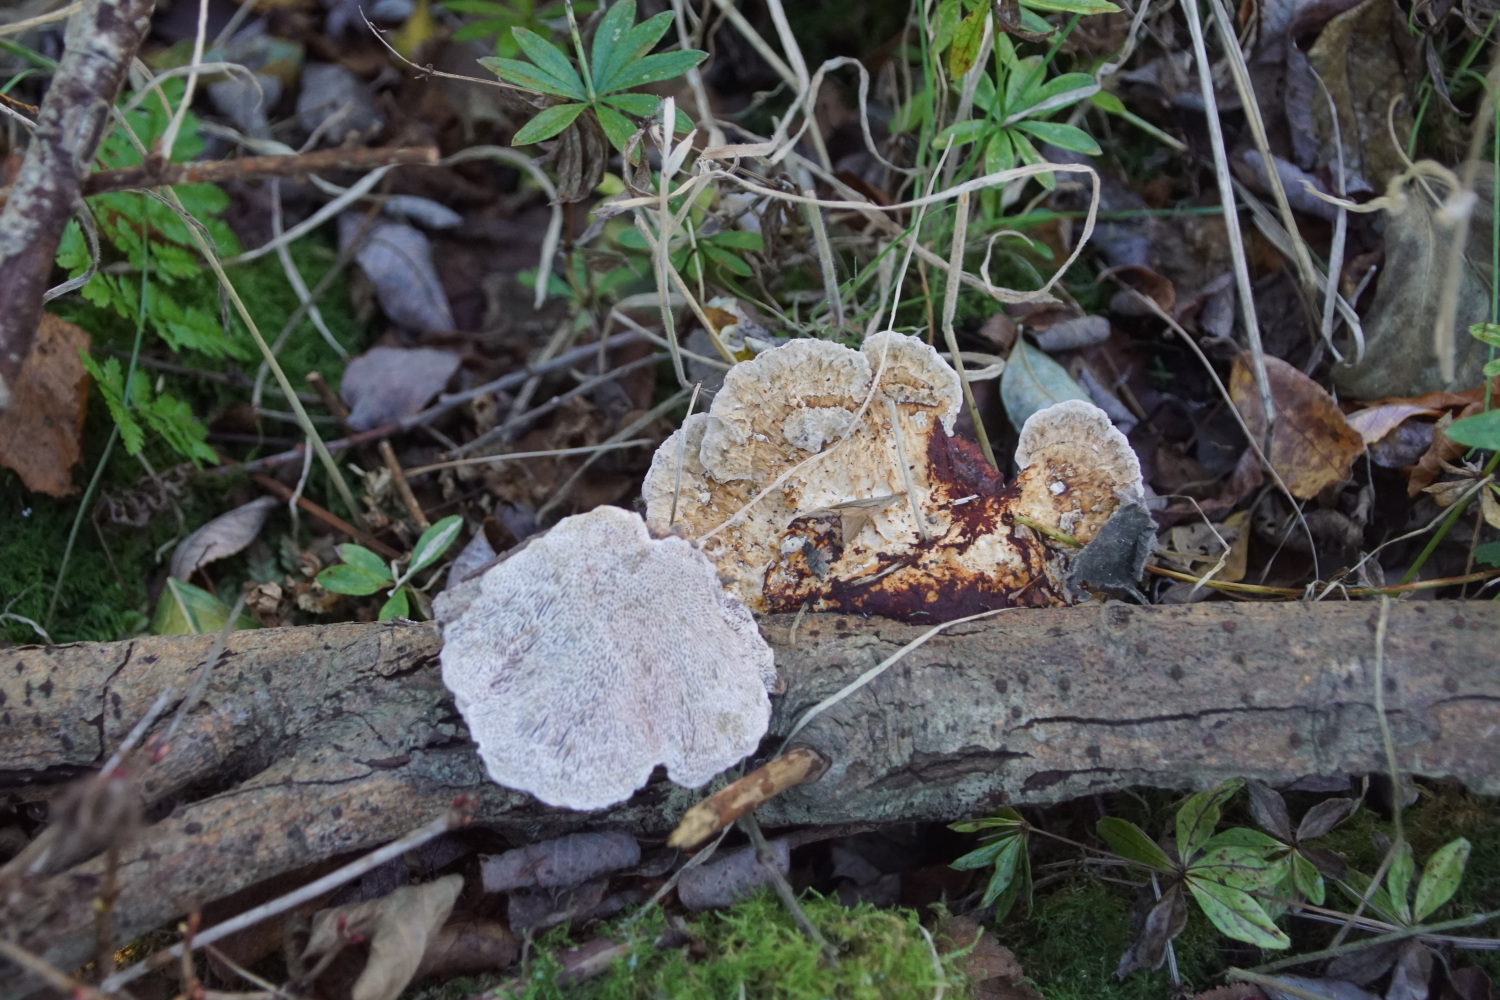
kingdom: Fungi
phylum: Basidiomycota
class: Agaricomycetes
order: Polyporales
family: Polyporaceae
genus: Daedaleopsis
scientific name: Daedaleopsis confragosa
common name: rødmende læderporesvamp
